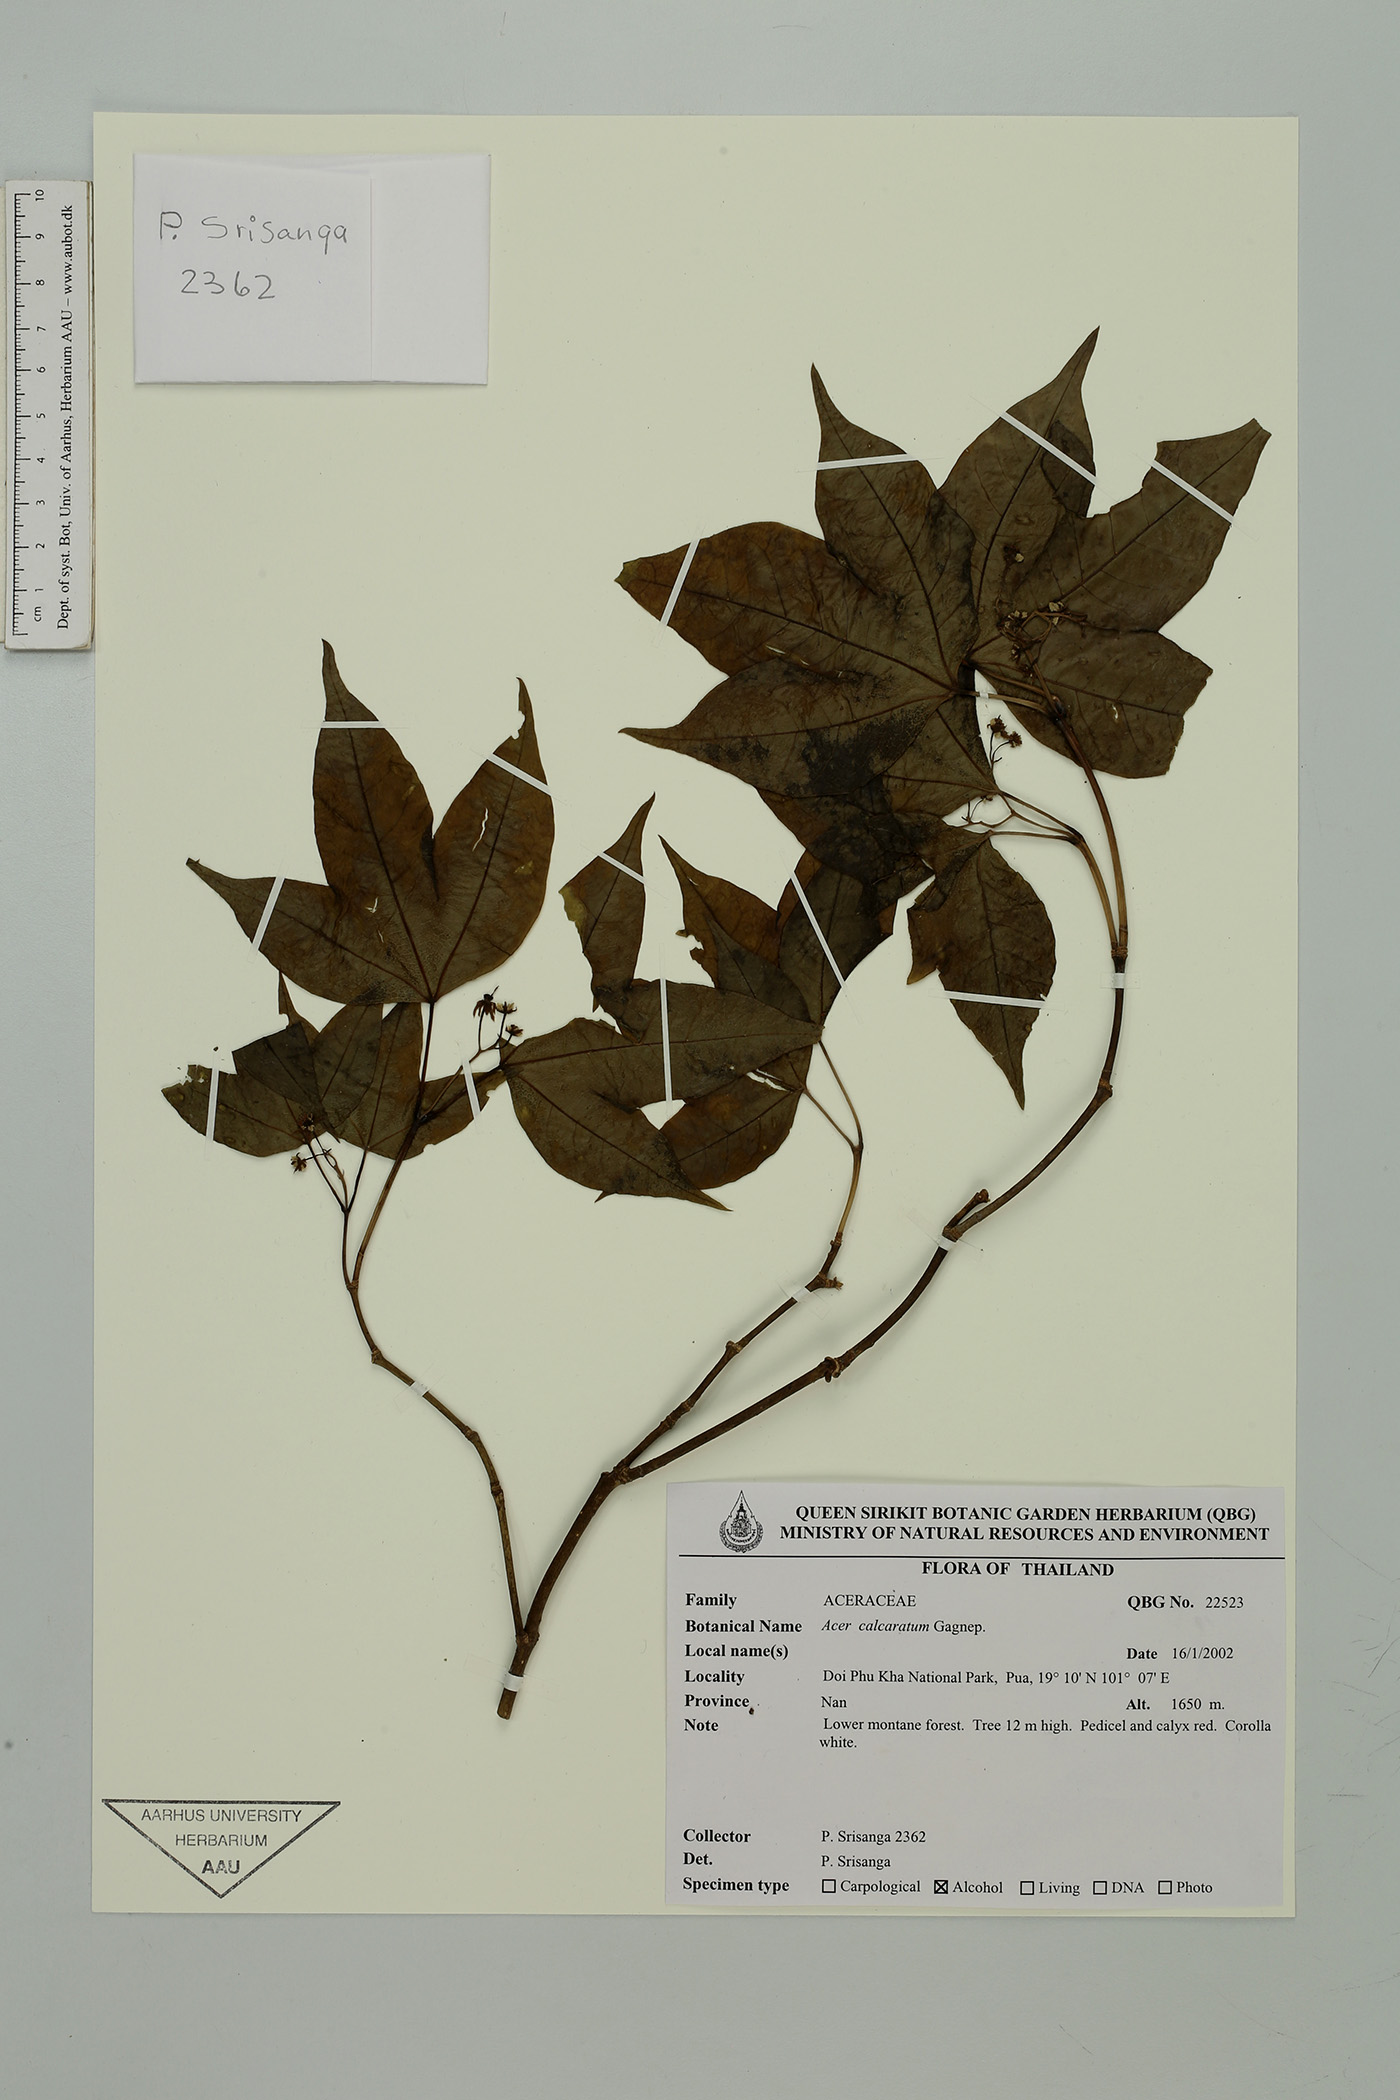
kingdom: Plantae
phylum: Tracheophyta
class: Magnoliopsida
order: Sapindales
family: Sapindaceae
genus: Acer
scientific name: Acer calcaratum
